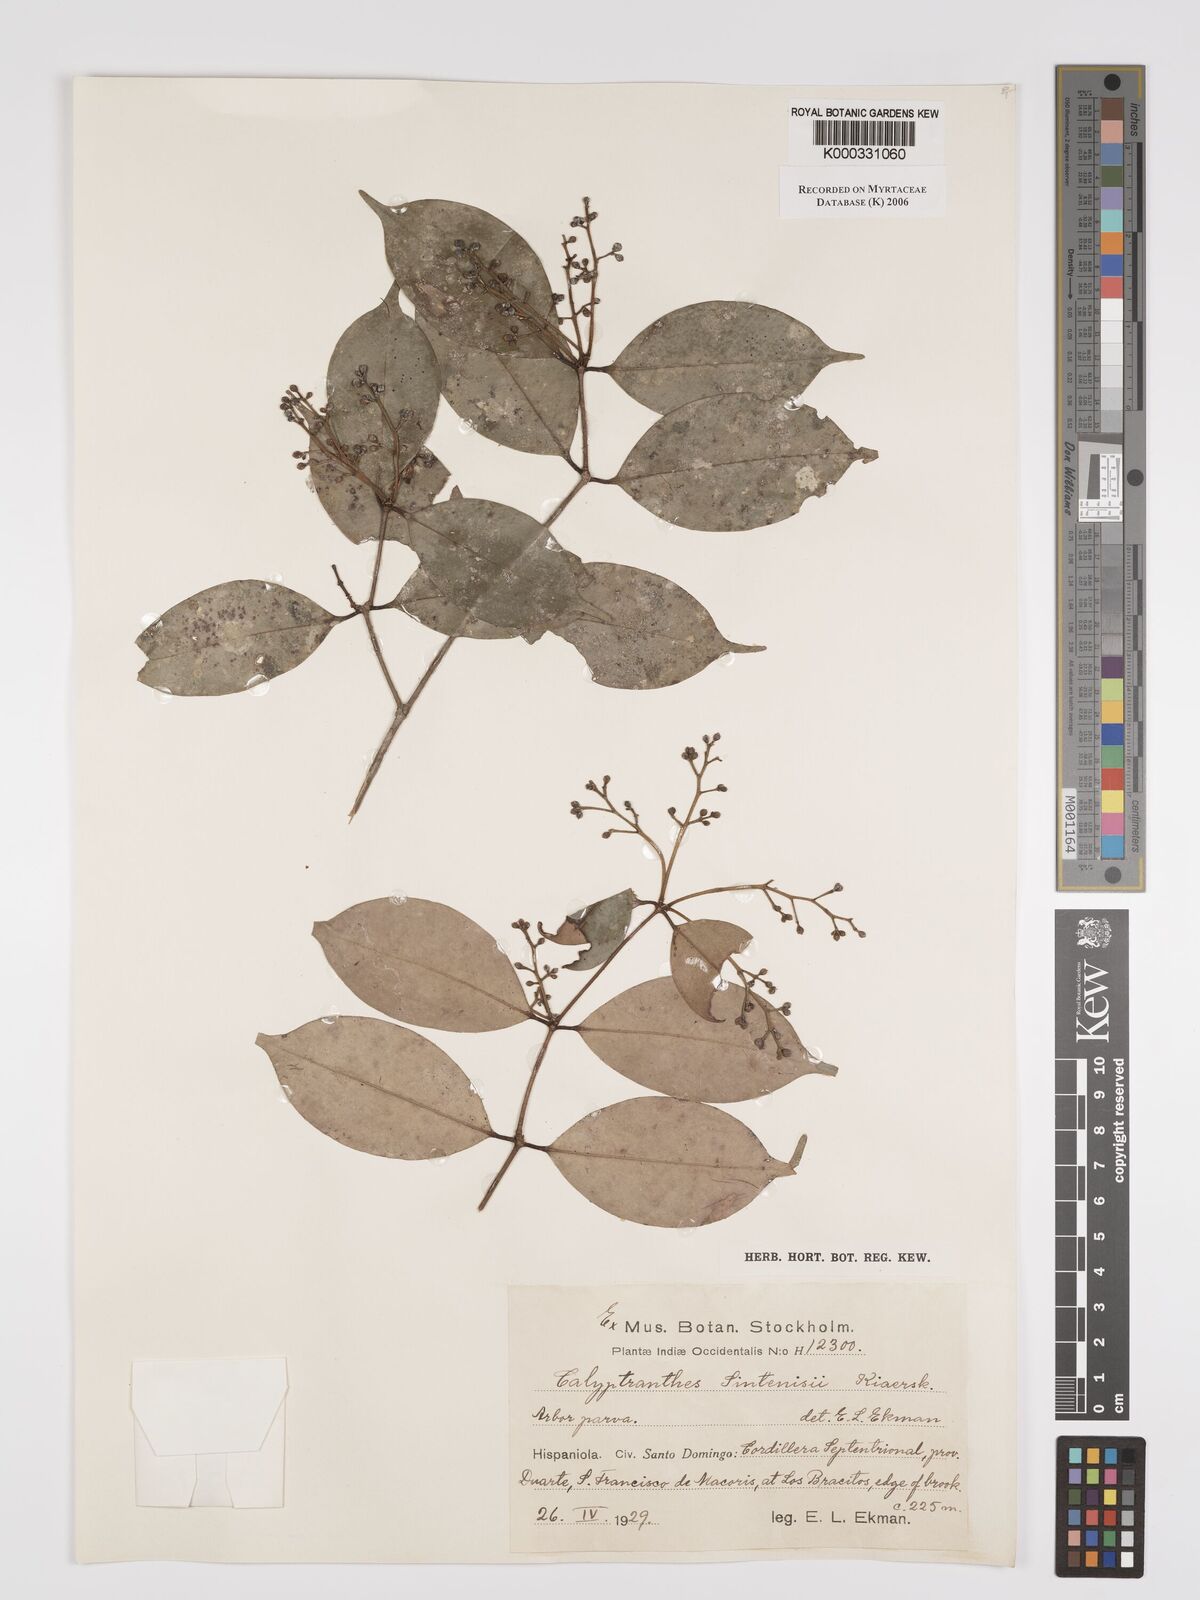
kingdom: Plantae
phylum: Tracheophyta
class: Magnoliopsida
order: Myrtales
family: Myrtaceae
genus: Myrcia
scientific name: Myrcia neosintenisii
